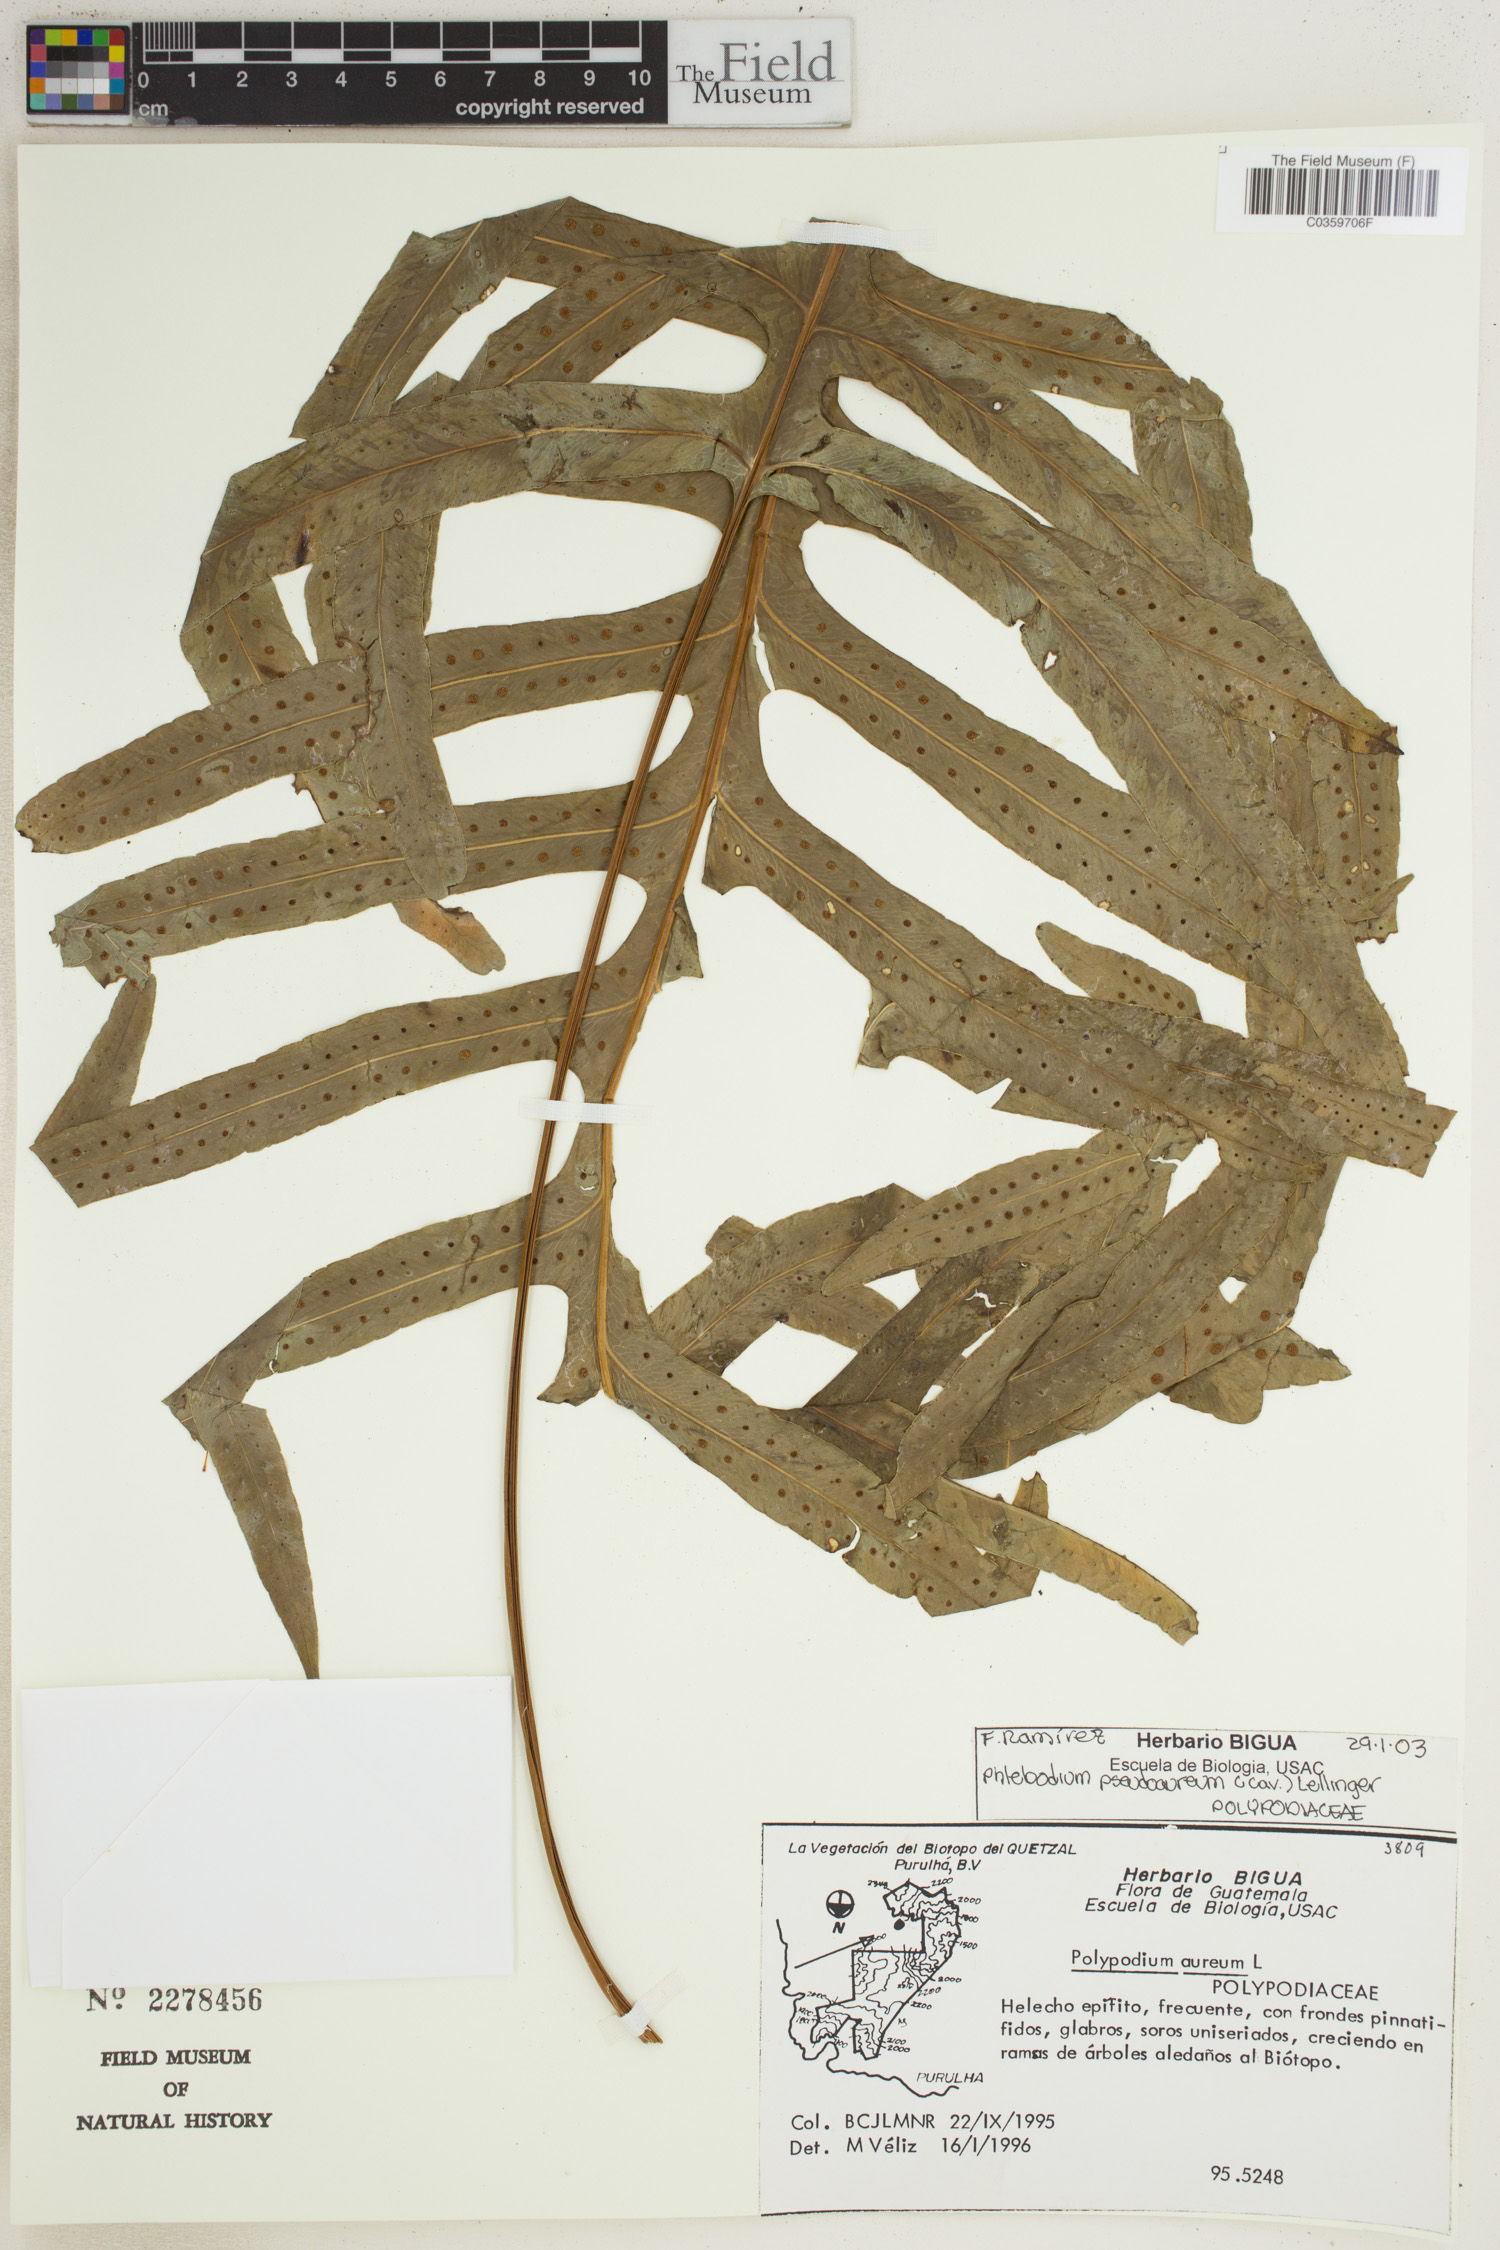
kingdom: Plantae
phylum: Tracheophyta
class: Polypodiopsida
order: Polypodiales
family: Polypodiaceae
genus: Phlebodium
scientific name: Phlebodium pseudoaureum
